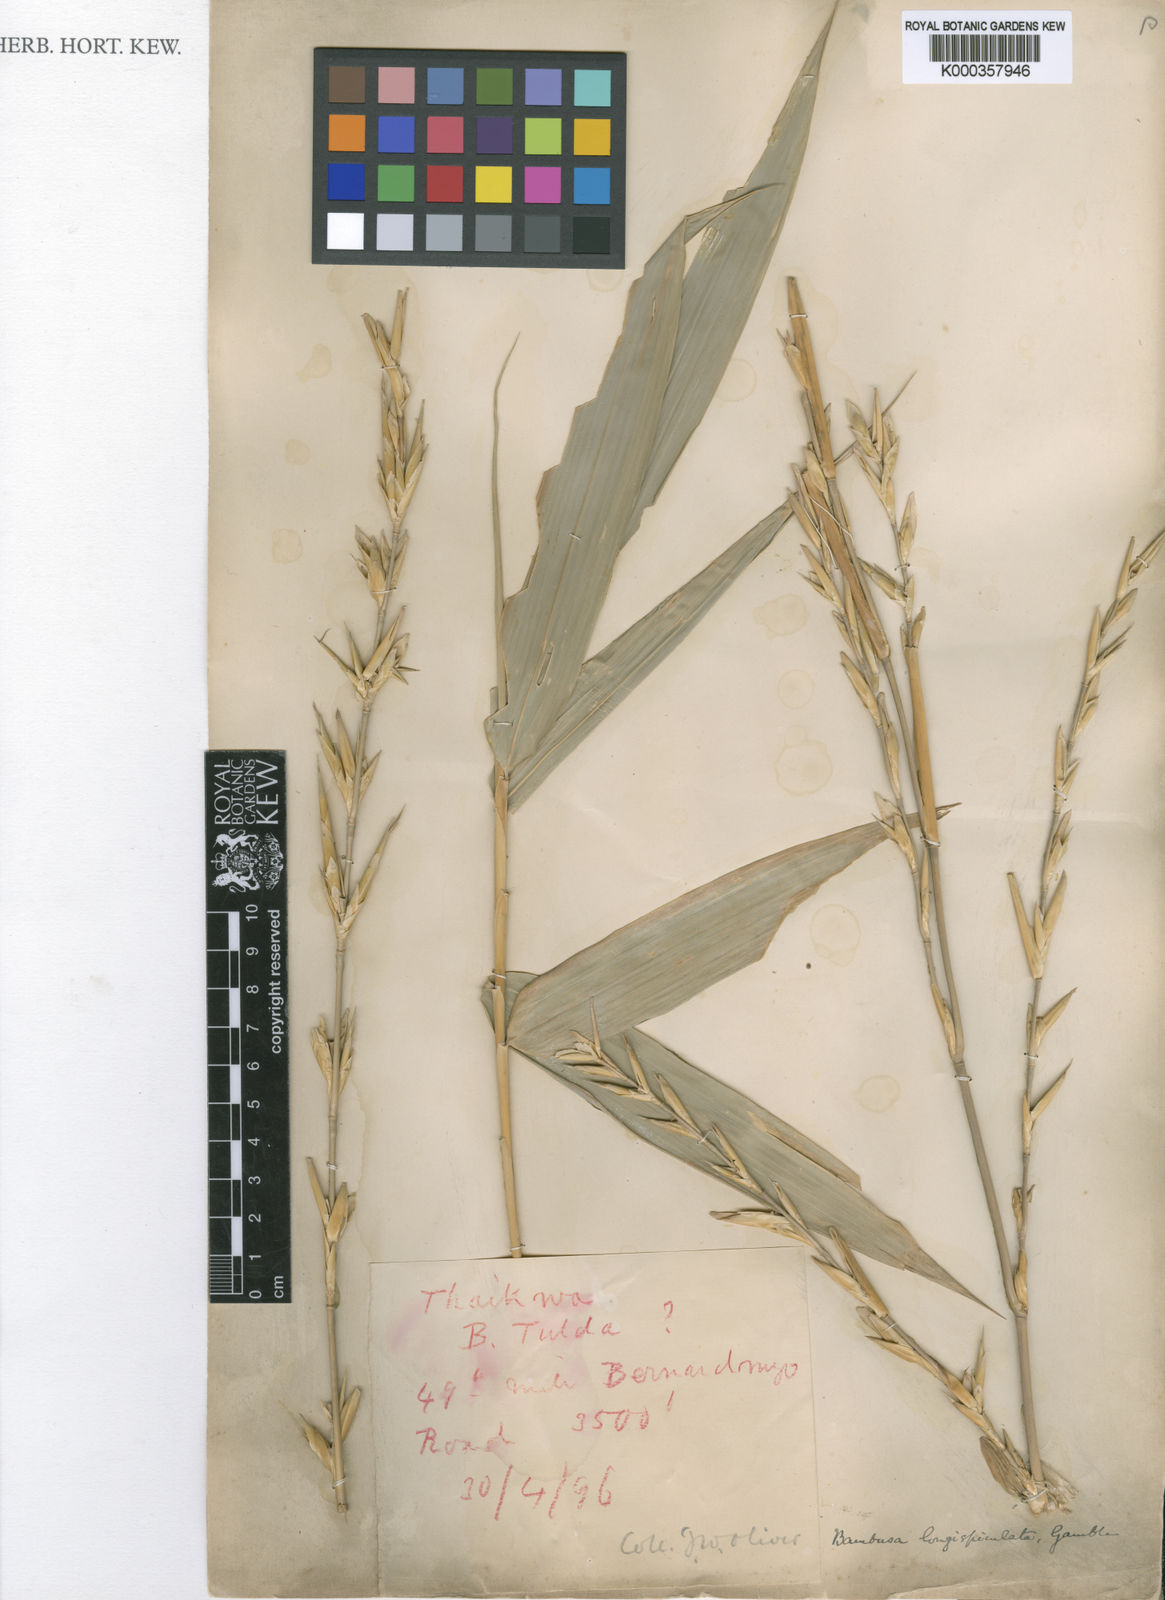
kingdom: Plantae
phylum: Tracheophyta
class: Liliopsida
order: Poales
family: Poaceae
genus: Bambusa
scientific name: Bambusa
